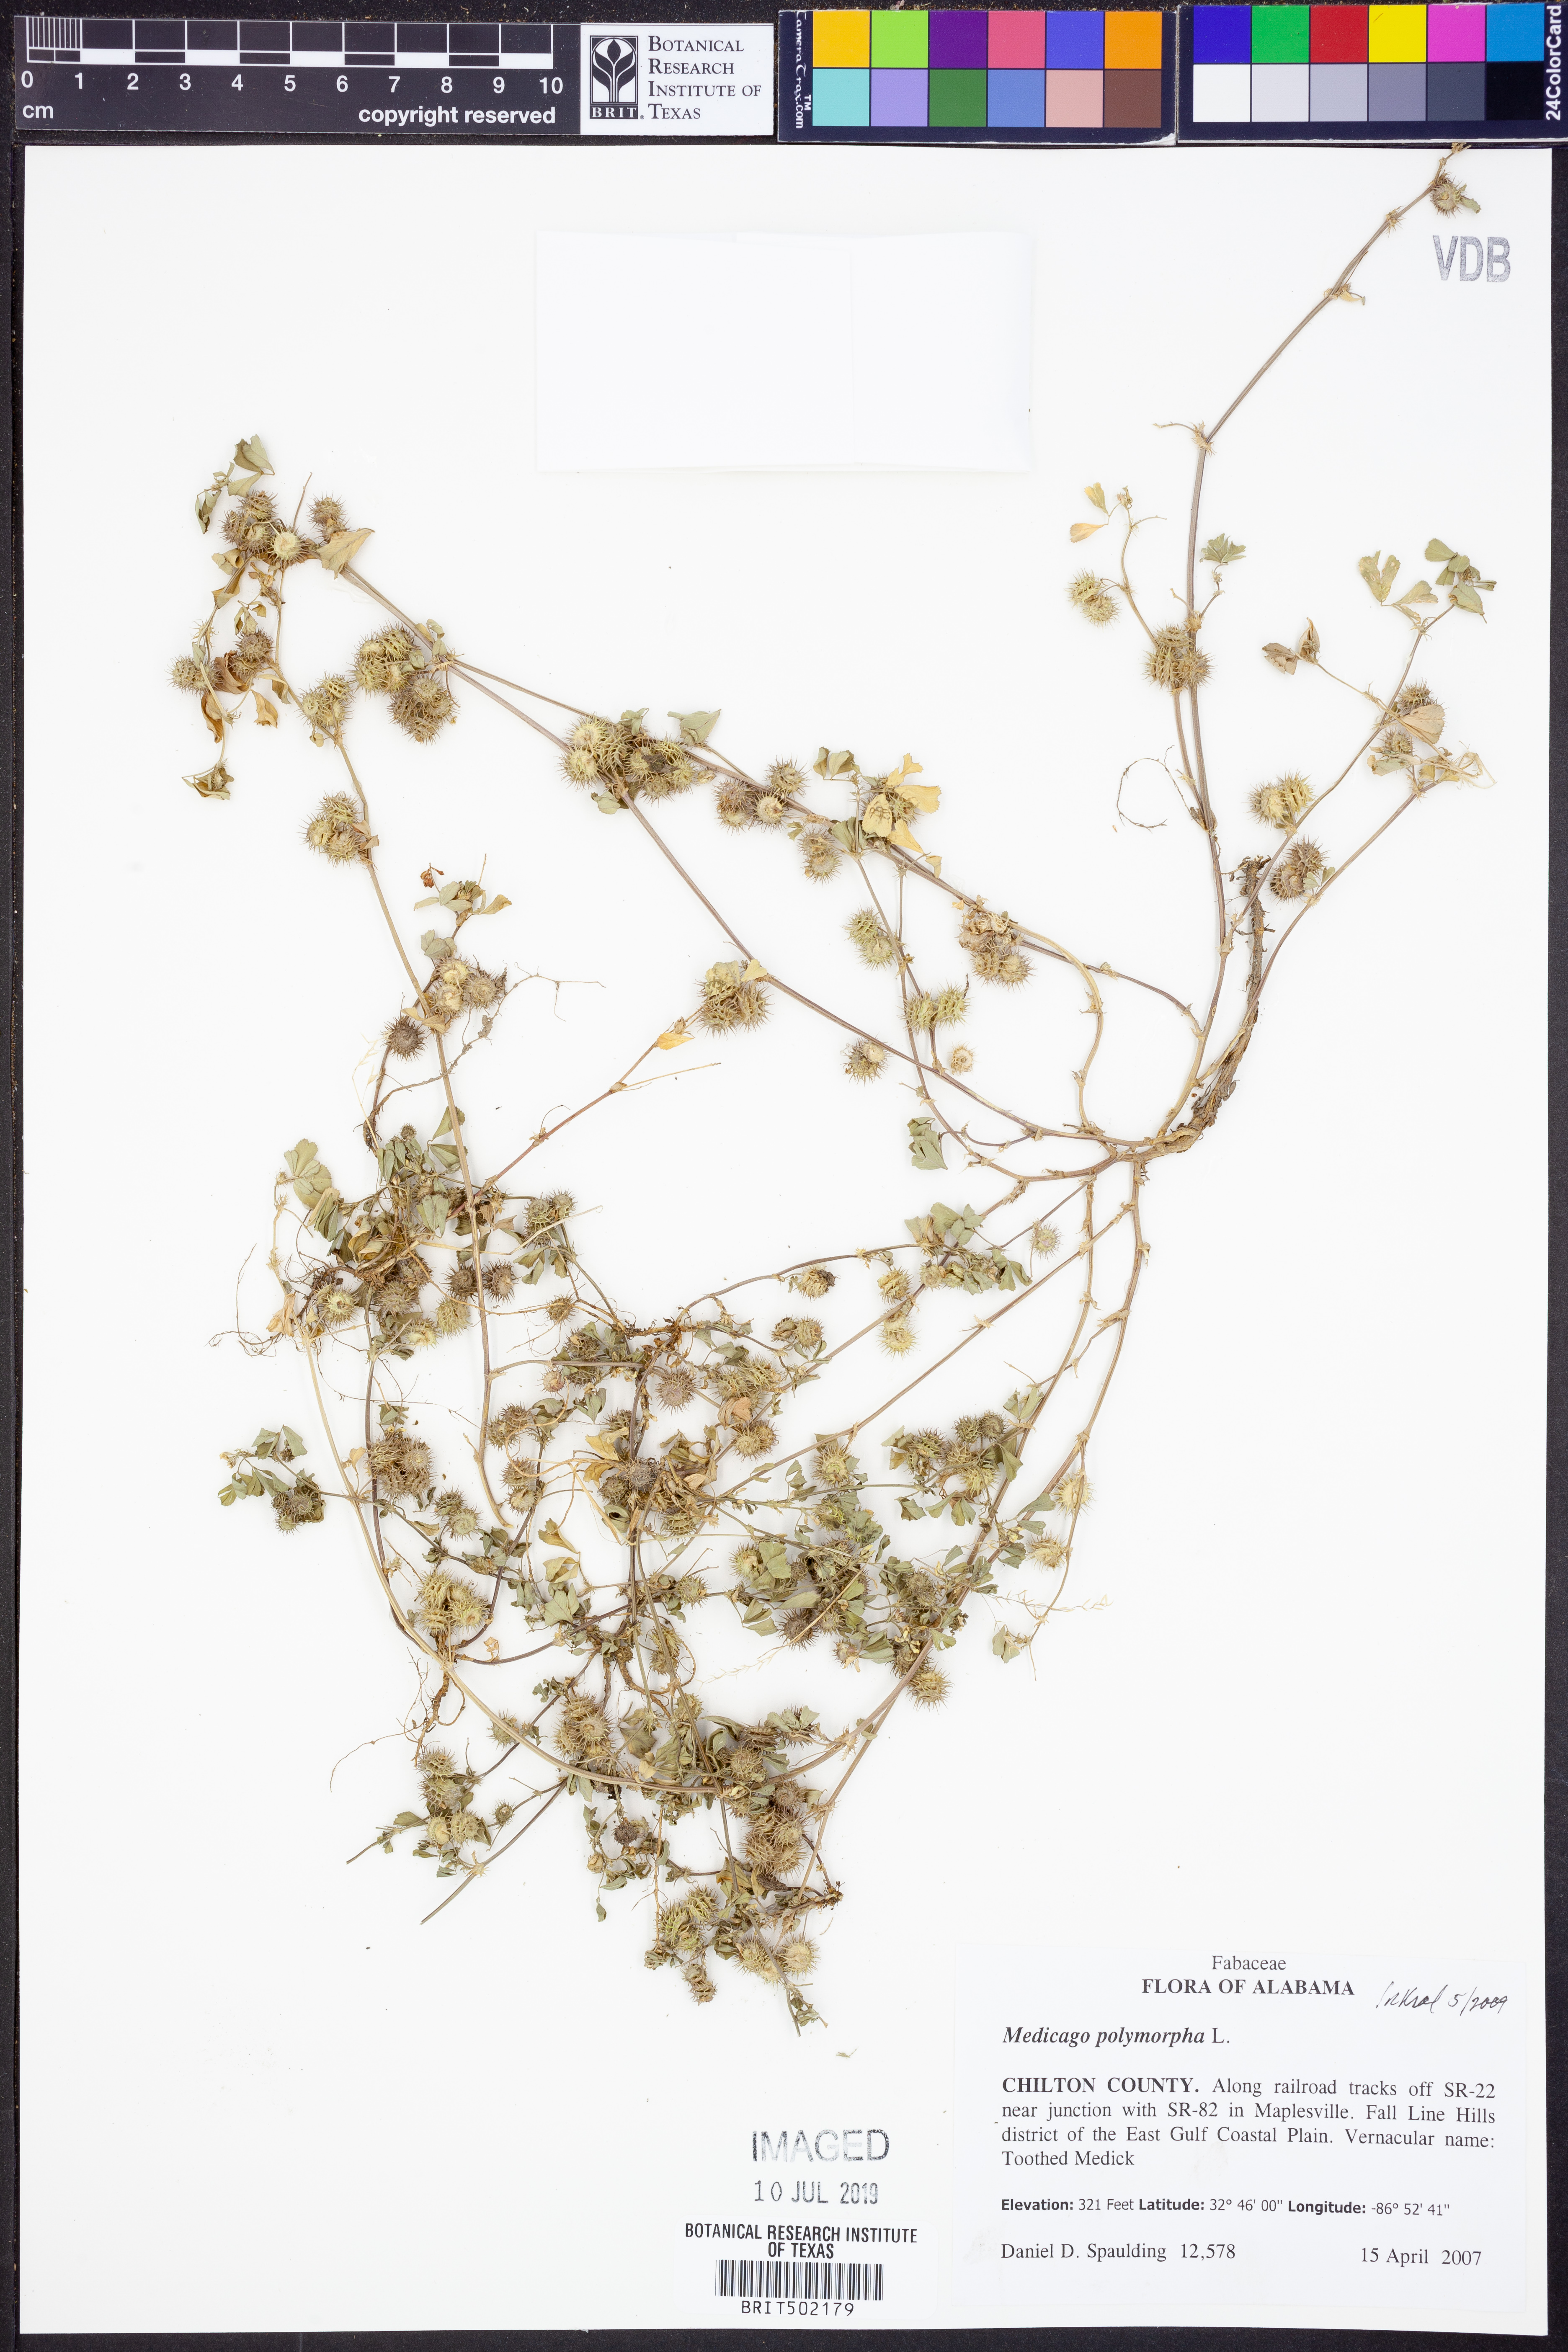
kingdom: Plantae
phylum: Tracheophyta
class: Magnoliopsida
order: Fabales
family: Fabaceae
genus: Medicago
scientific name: Medicago polymorpha
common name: Burclover
